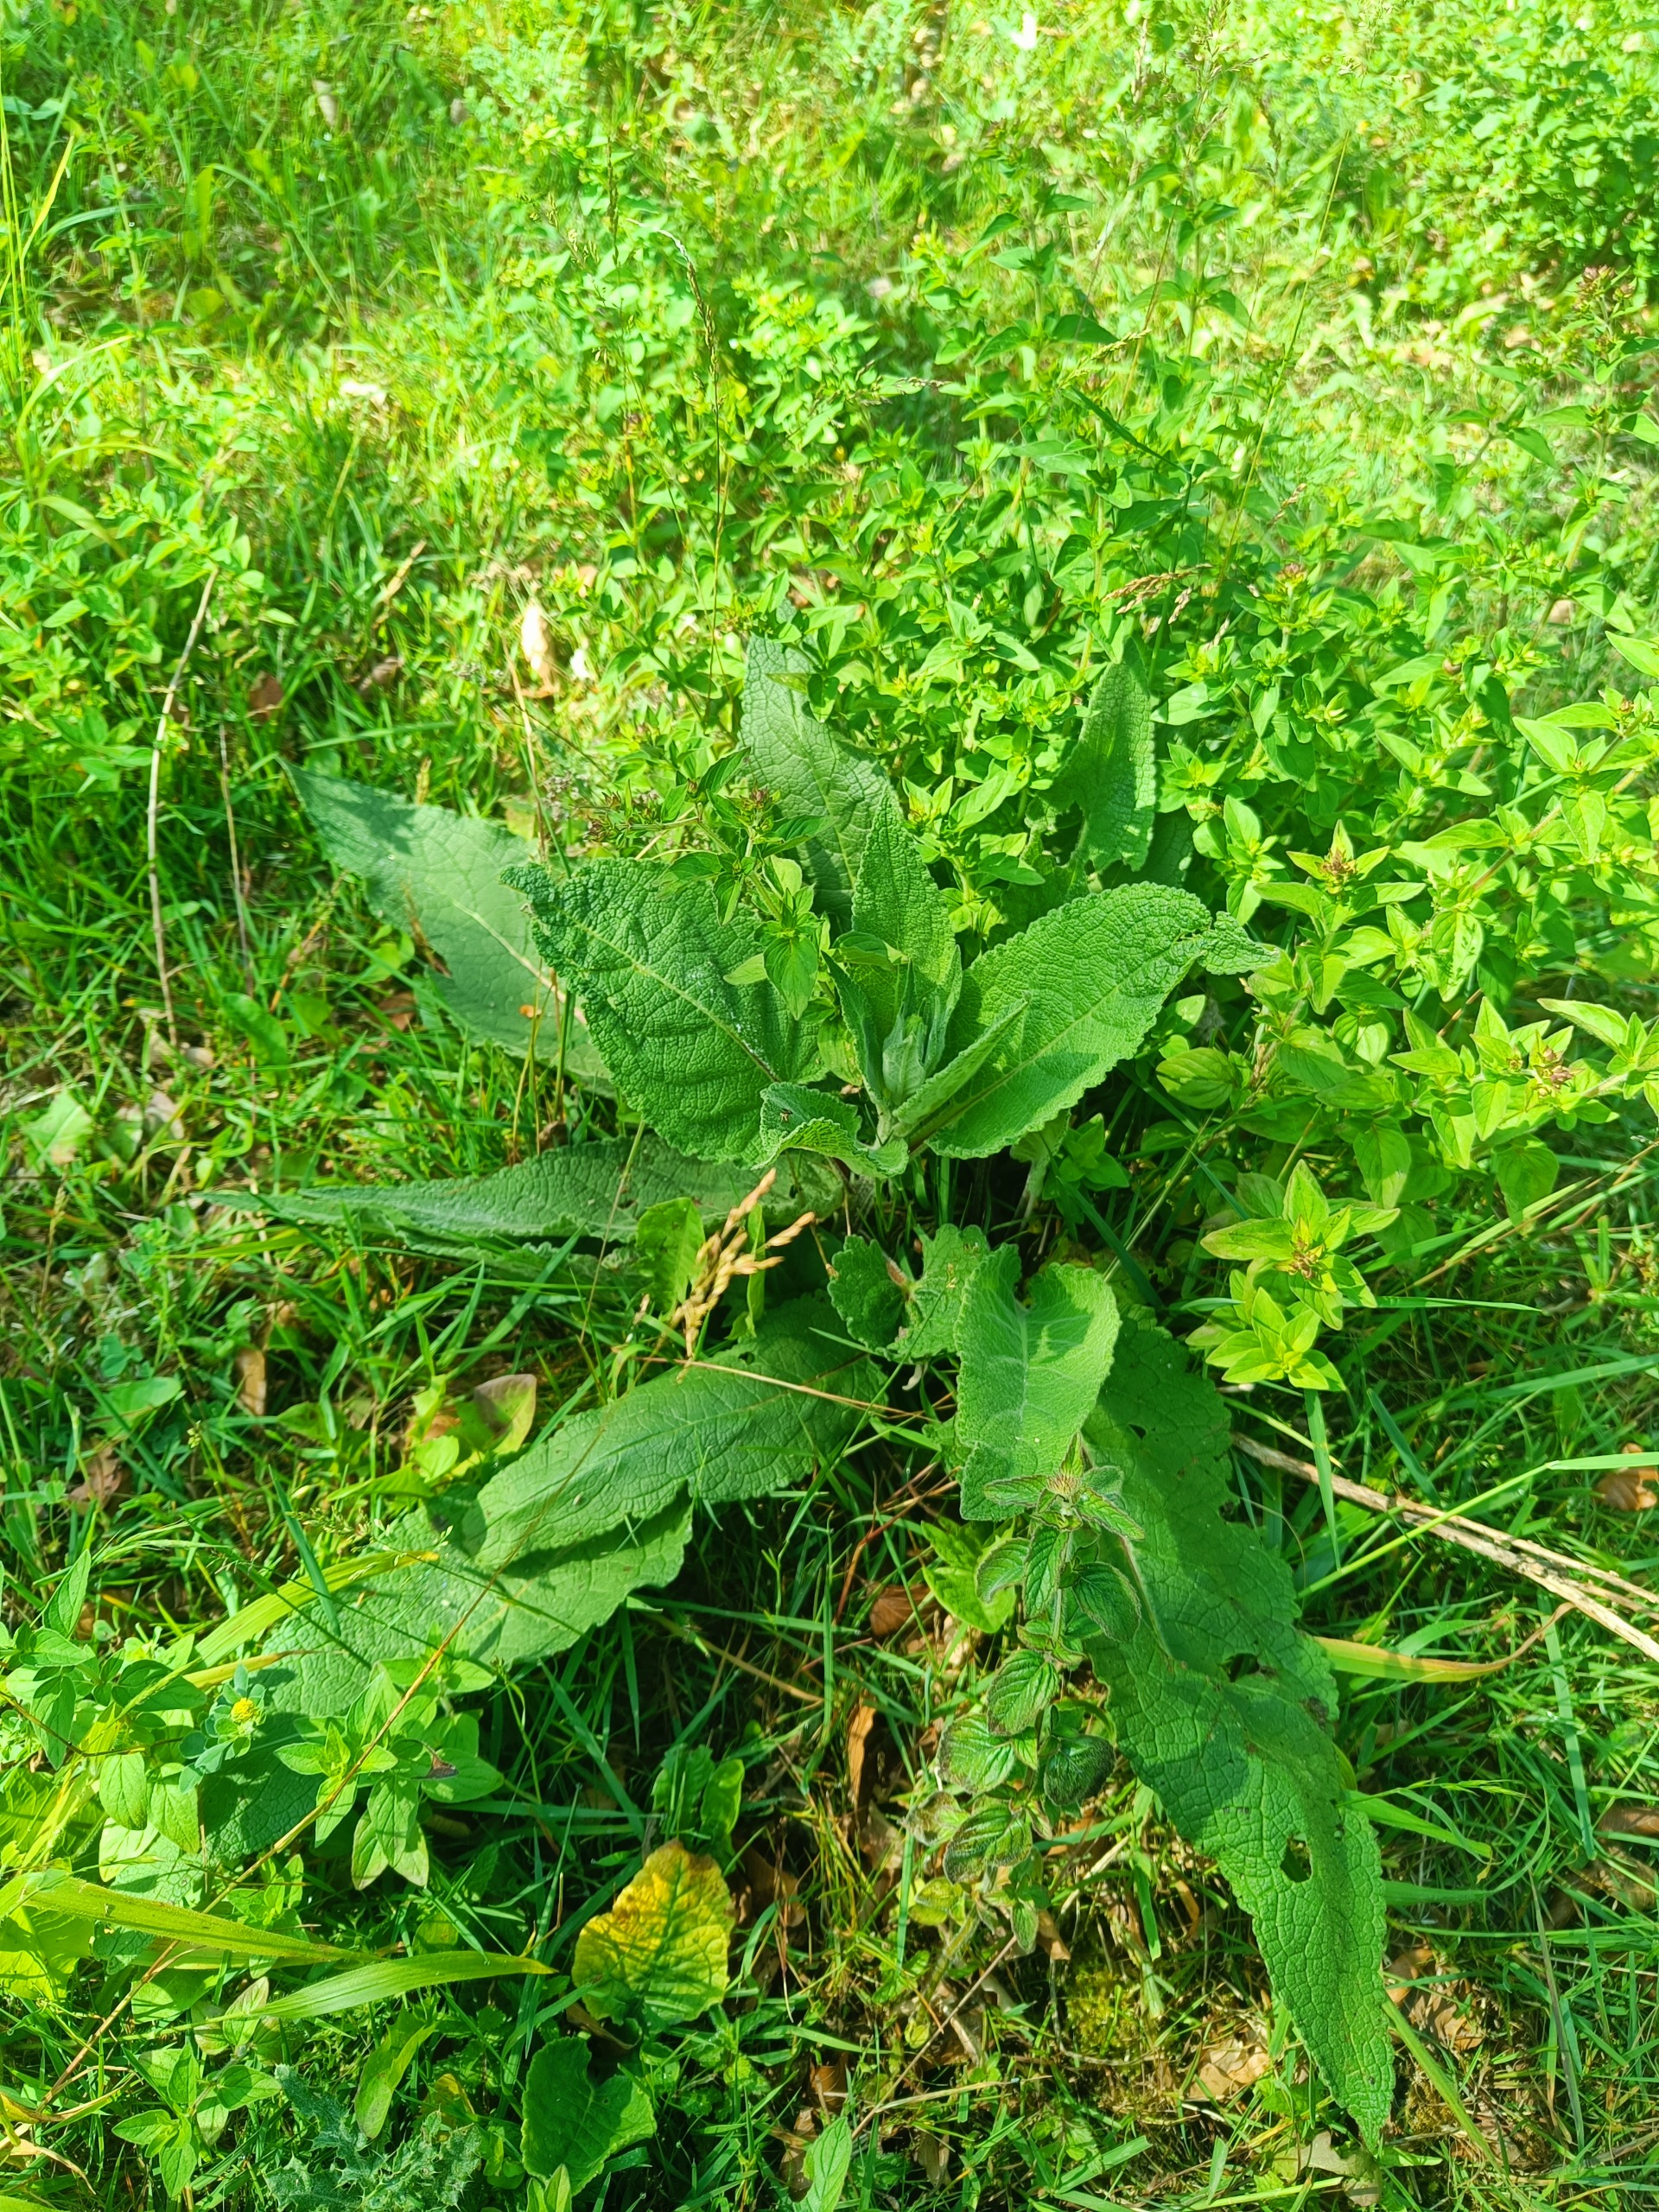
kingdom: Plantae
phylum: Tracheophyta
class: Magnoliopsida
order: Lamiales
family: Scrophulariaceae
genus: Verbascum
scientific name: Verbascum nigrum
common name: Mørk kongelys
